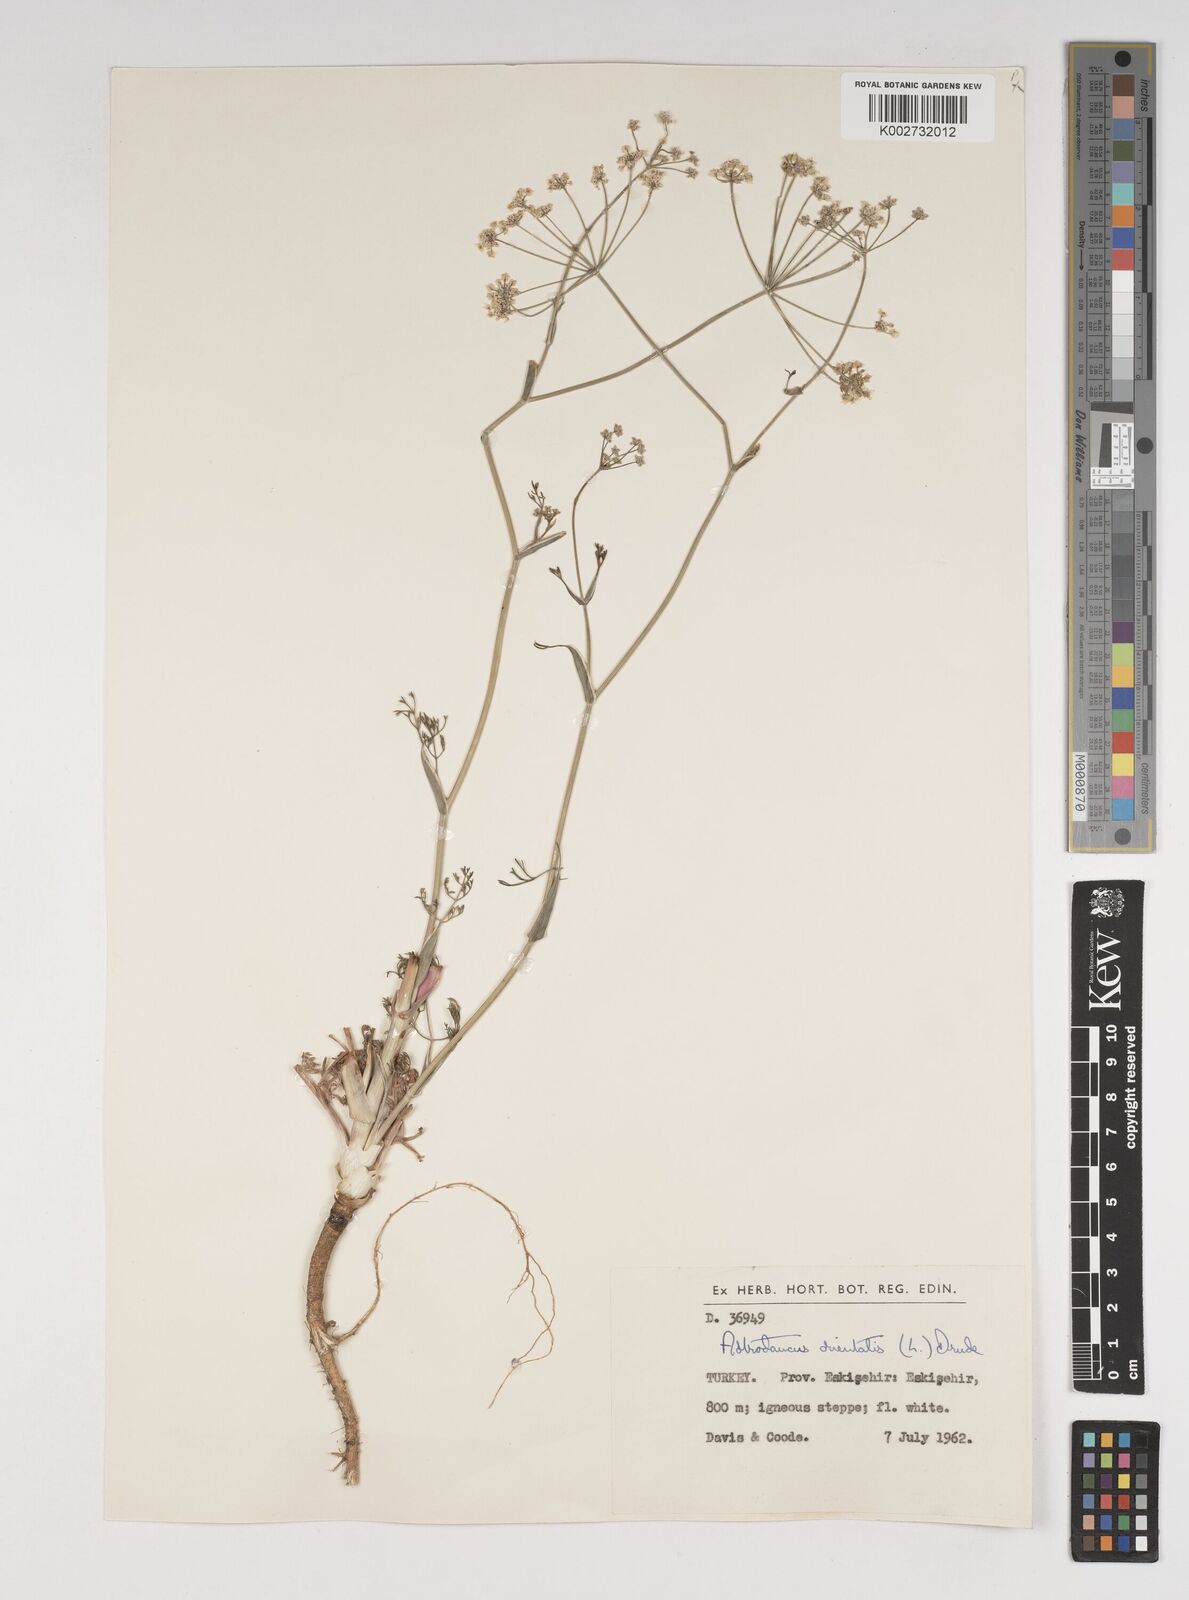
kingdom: Plantae
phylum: Tracheophyta
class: Magnoliopsida
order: Apiales
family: Apiaceae
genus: Astrodaucus
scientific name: Astrodaucus
